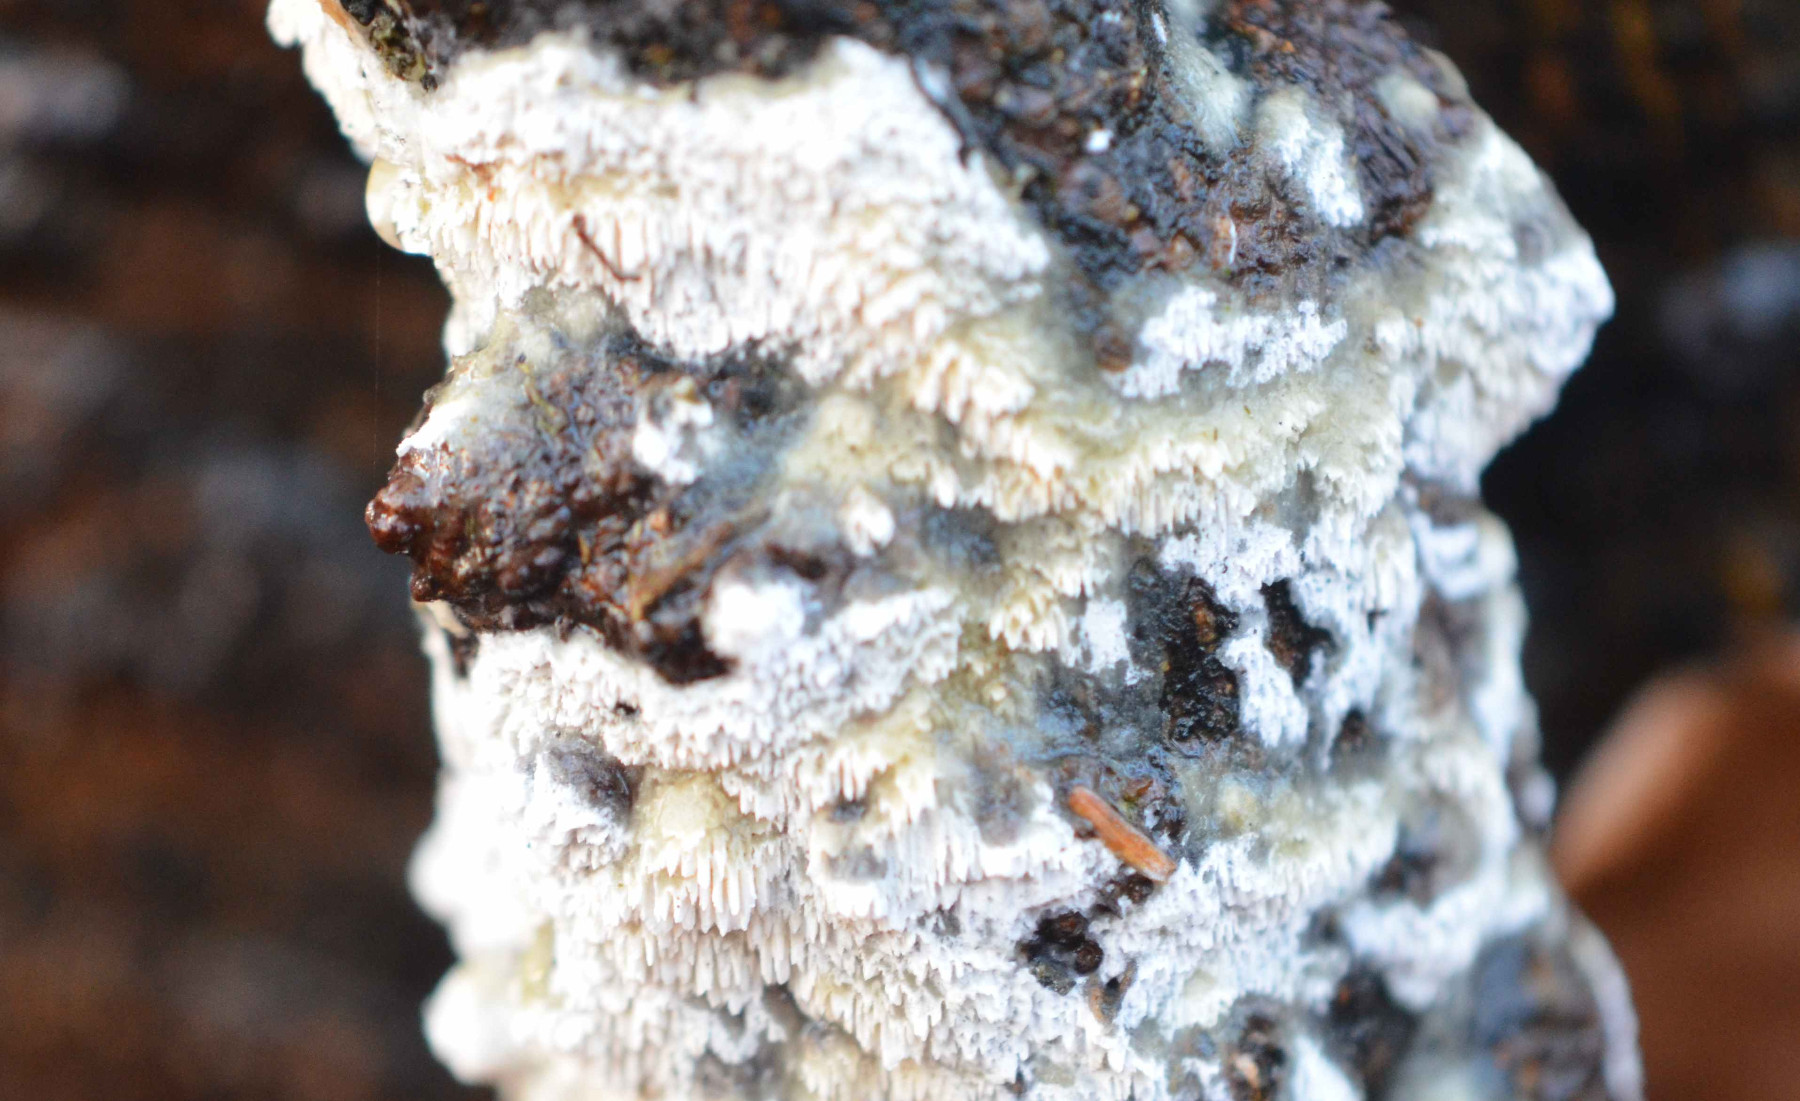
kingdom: Fungi
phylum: Basidiomycota
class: Agaricomycetes
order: Hymenochaetales
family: Schizoporaceae
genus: Schizopora
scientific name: Schizopora paradoxa
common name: hvid tandsvamp
